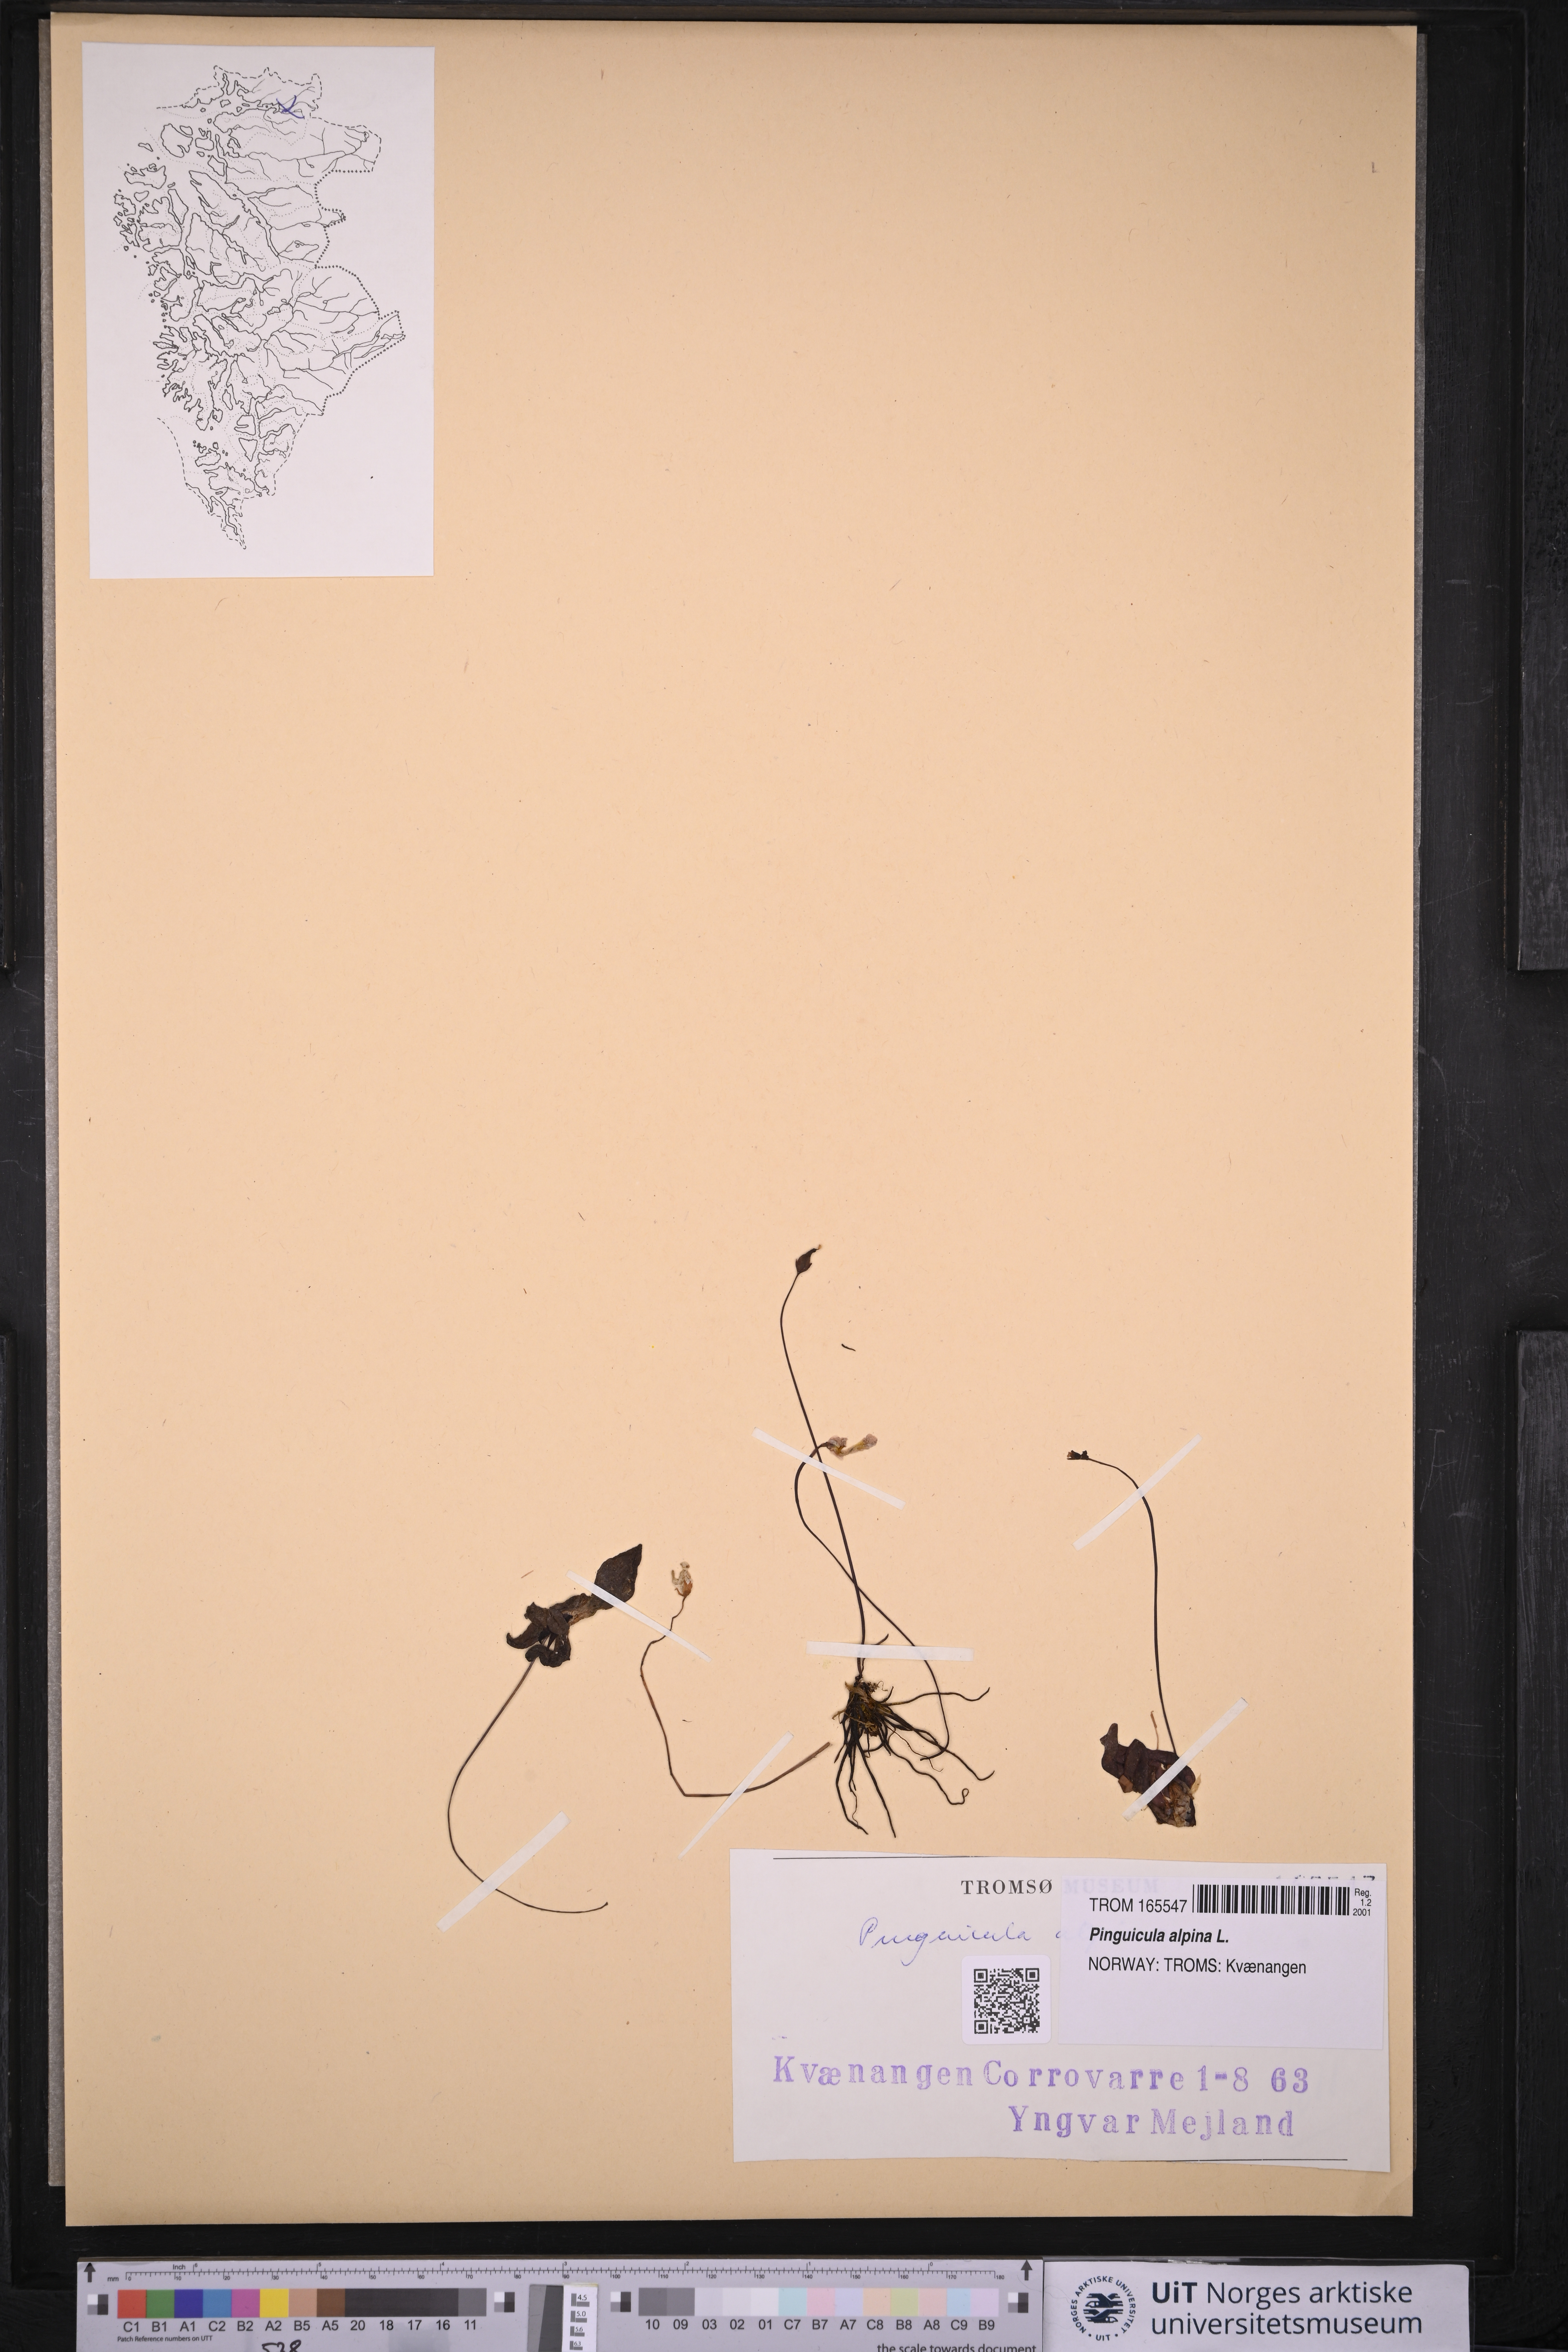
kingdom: Plantae
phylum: Tracheophyta
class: Magnoliopsida
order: Lamiales
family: Lentibulariaceae
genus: Pinguicula
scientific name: Pinguicula alpina
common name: Alpine butterwort
